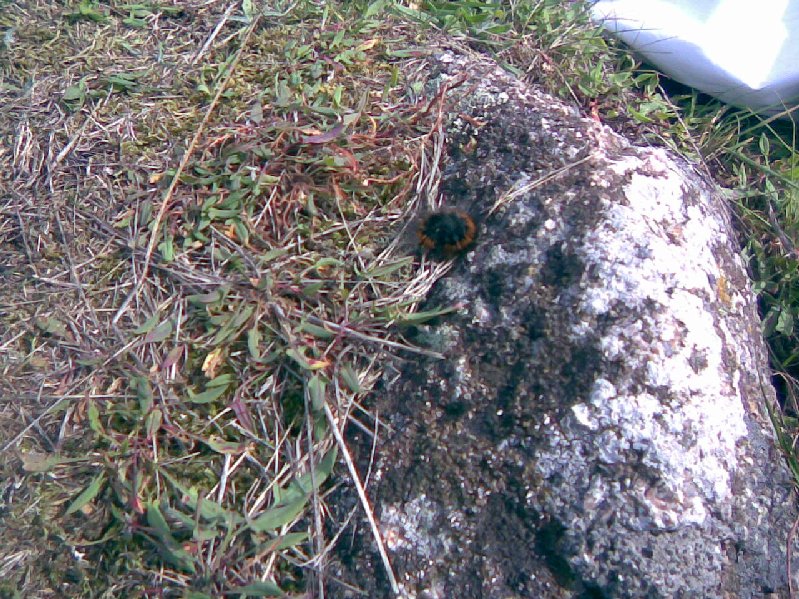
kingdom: Fungi
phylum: Basidiomycota
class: Agaricomycetes
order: Cantharellales
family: Hydnaceae
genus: Craterellus
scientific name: Craterellus tubaeformis
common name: tragt-kantarel
